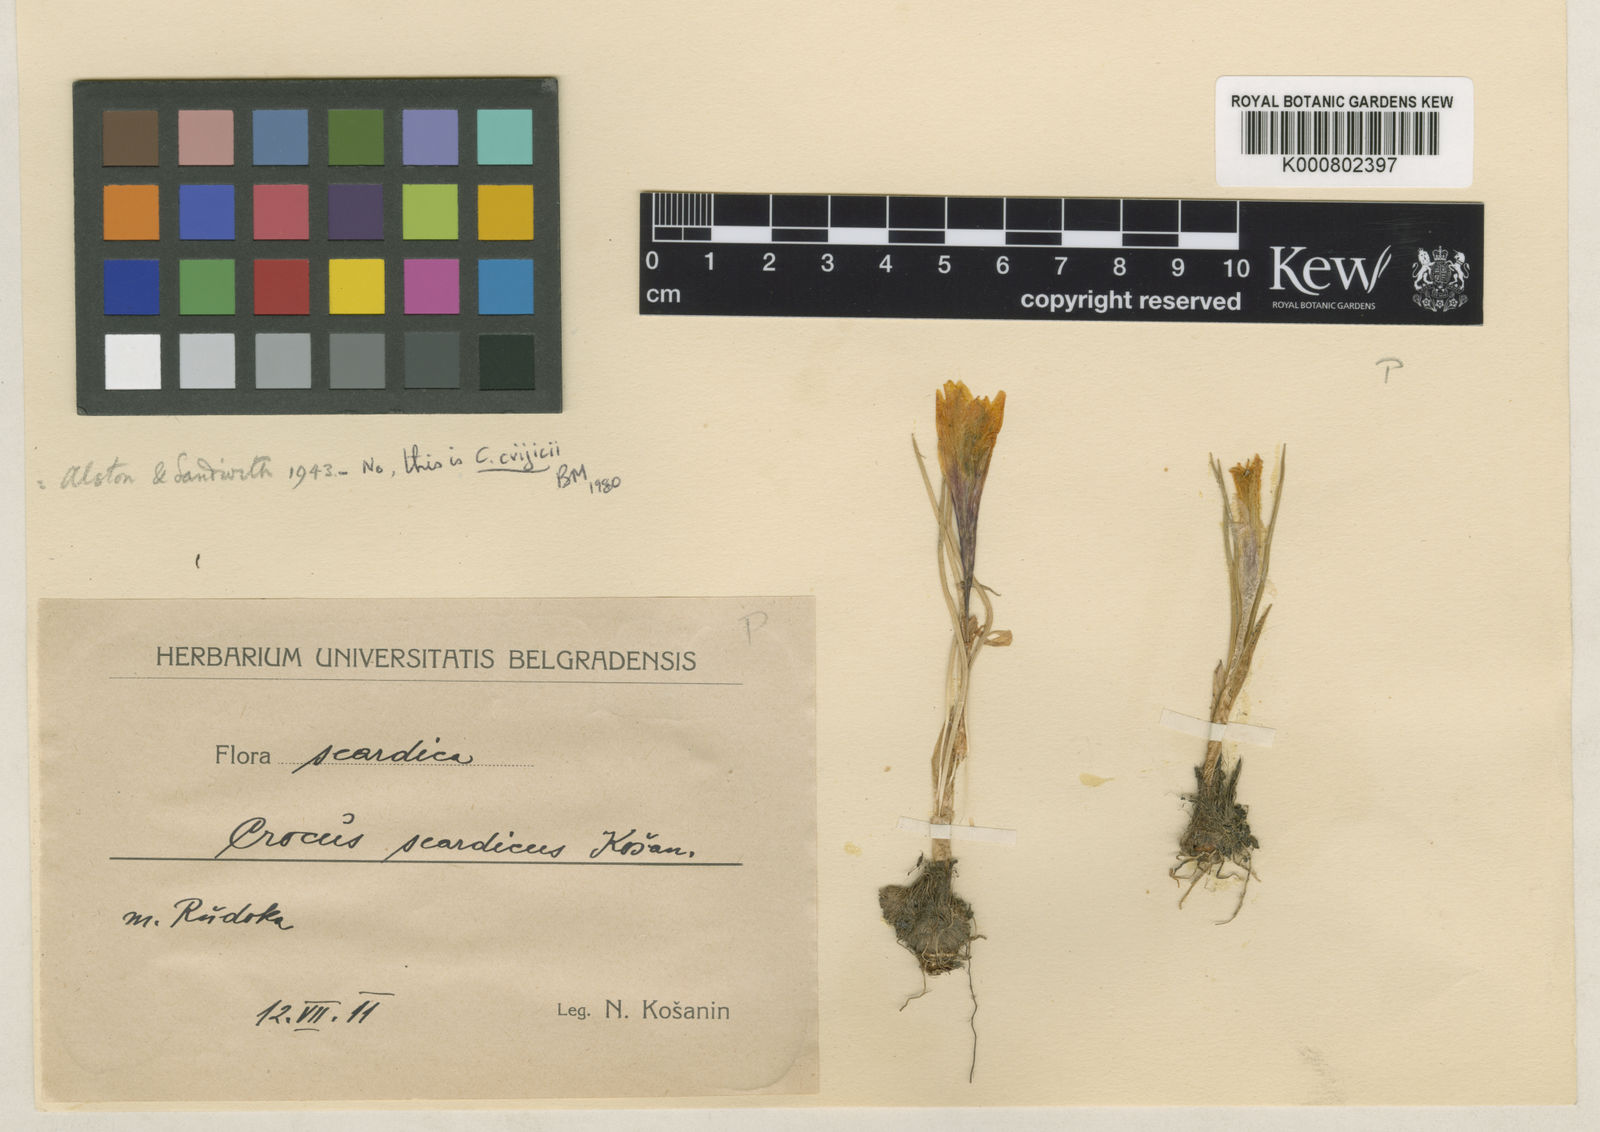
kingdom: Plantae
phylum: Tracheophyta
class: Liliopsida
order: Asparagales
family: Iridaceae
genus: Crocus
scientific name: Crocus scardicus
